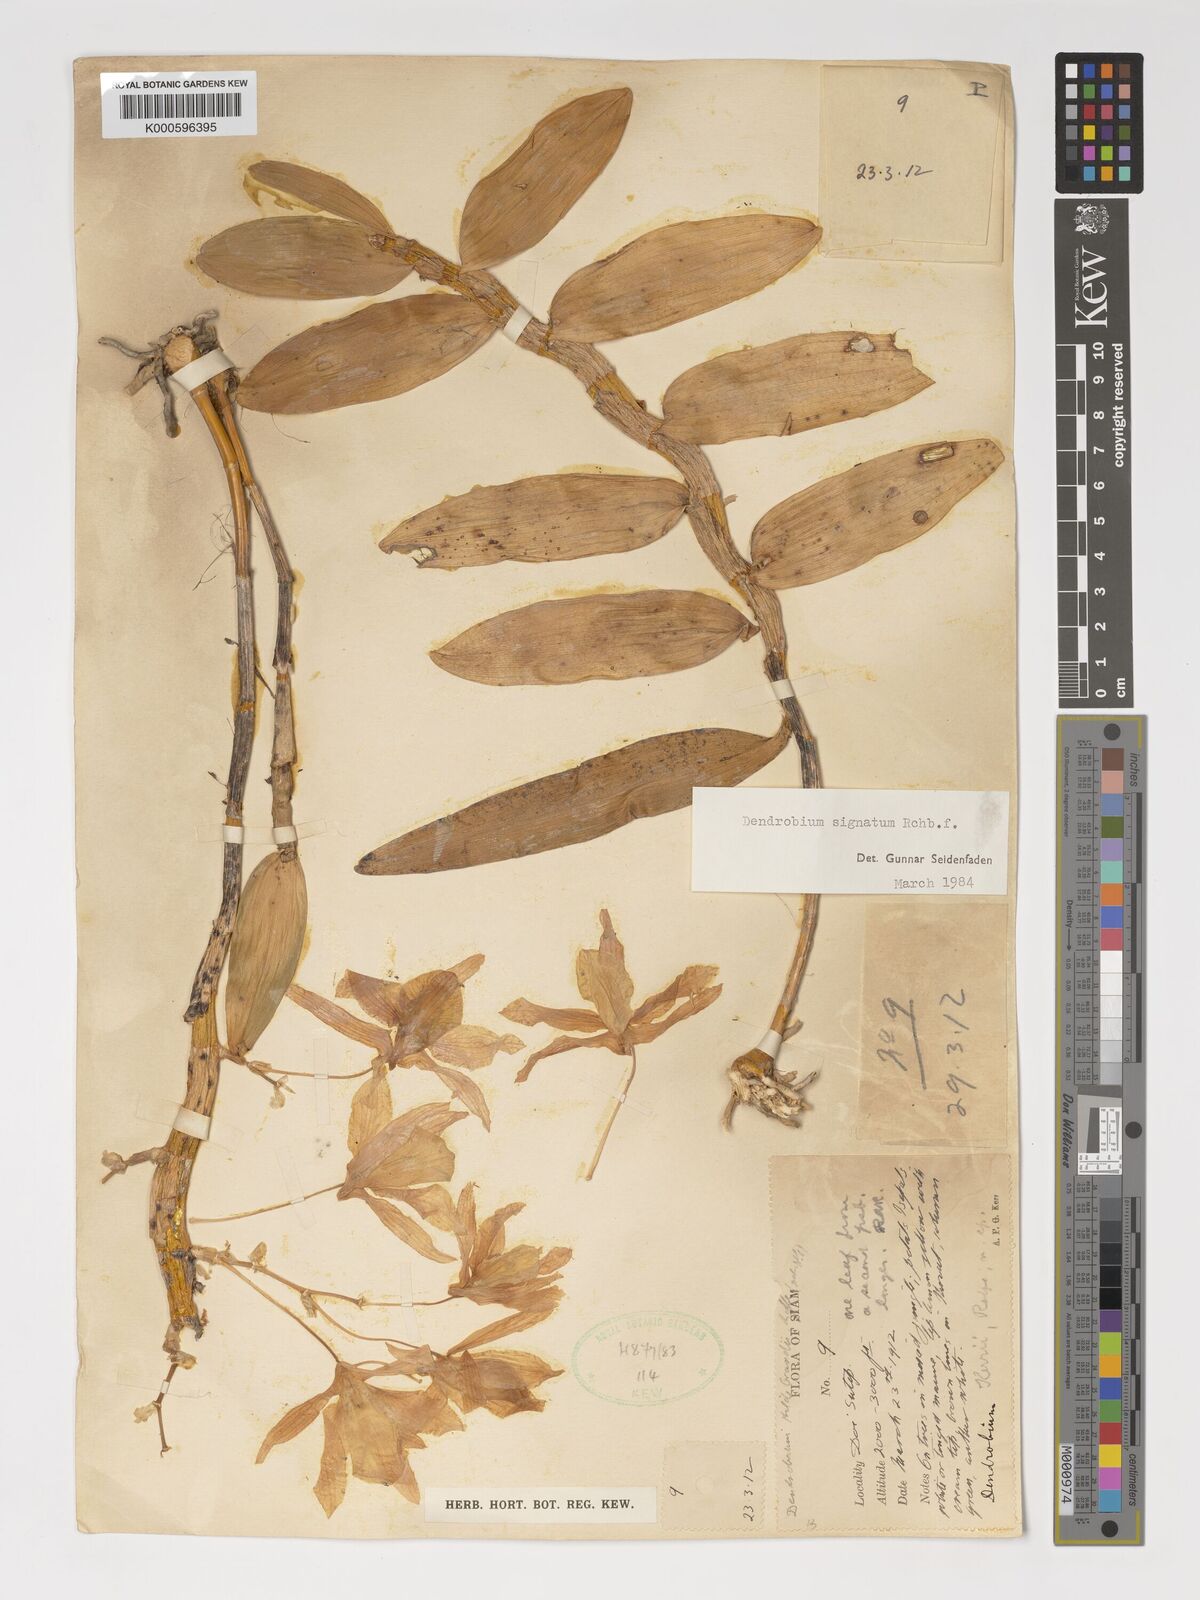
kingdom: Plantae
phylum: Tracheophyta
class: Liliopsida
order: Asparagales
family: Orchidaceae
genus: Dendrobium
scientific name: Dendrobium signatum
